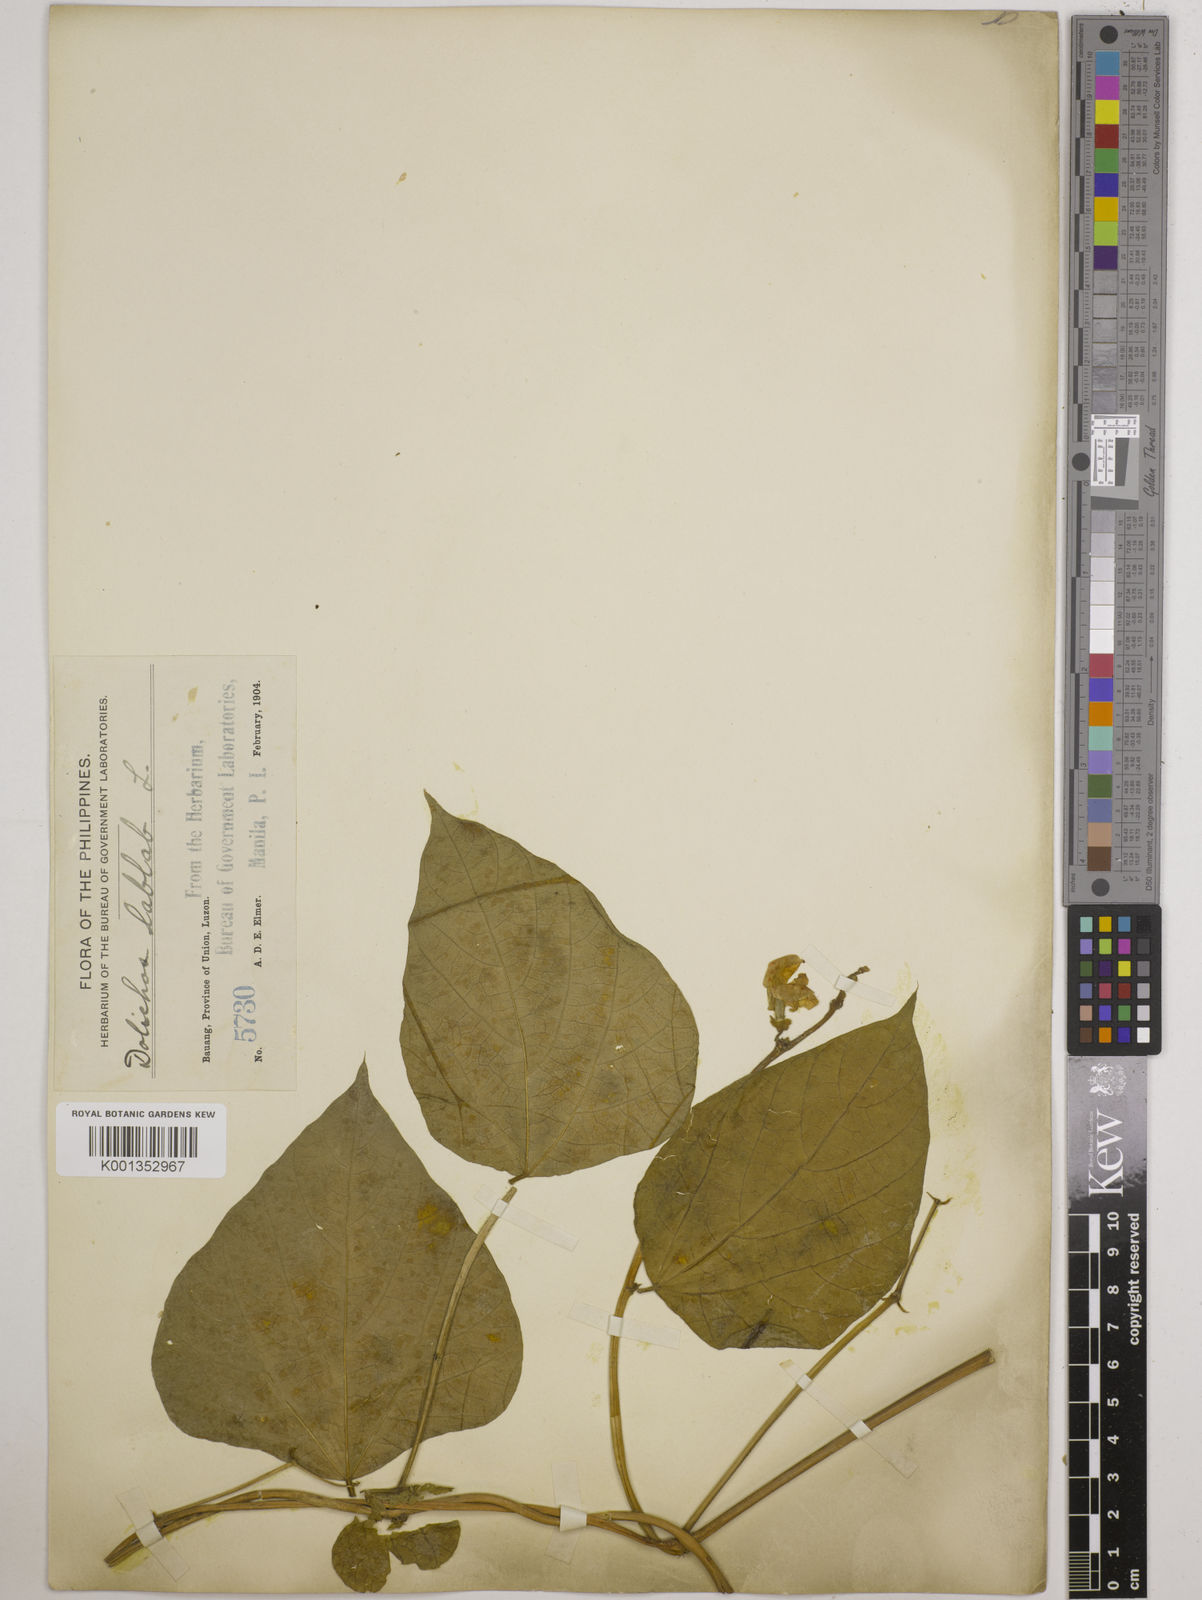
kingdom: Plantae
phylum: Tracheophyta
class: Magnoliopsida
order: Fabales
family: Fabaceae
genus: Lablab
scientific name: Lablab purpureus
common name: Lablab-bean
